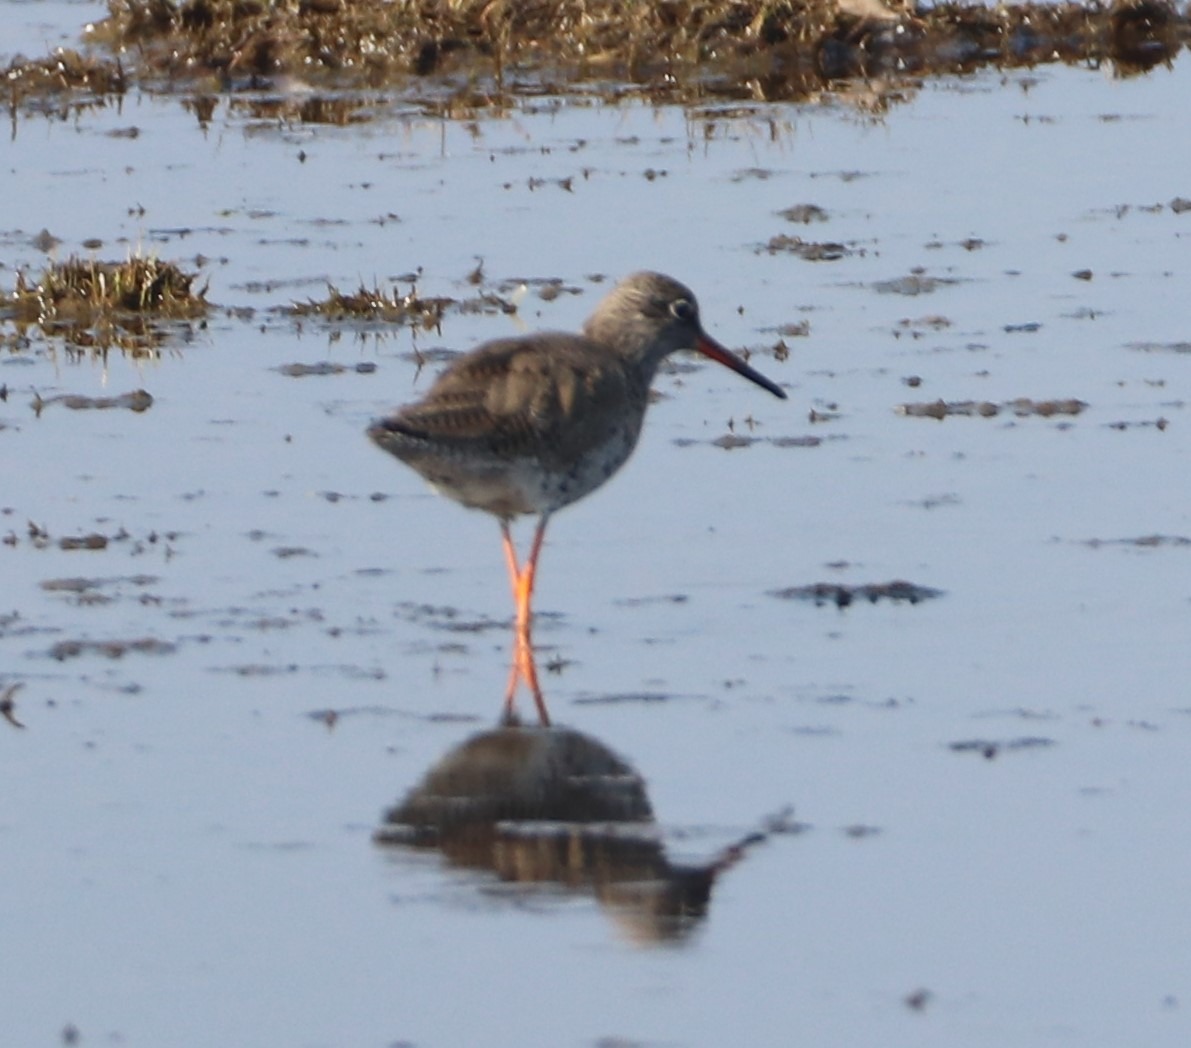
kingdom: Animalia
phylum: Chordata
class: Aves
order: Charadriiformes
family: Scolopacidae
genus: Tringa
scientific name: Tringa totanus
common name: Rødben
